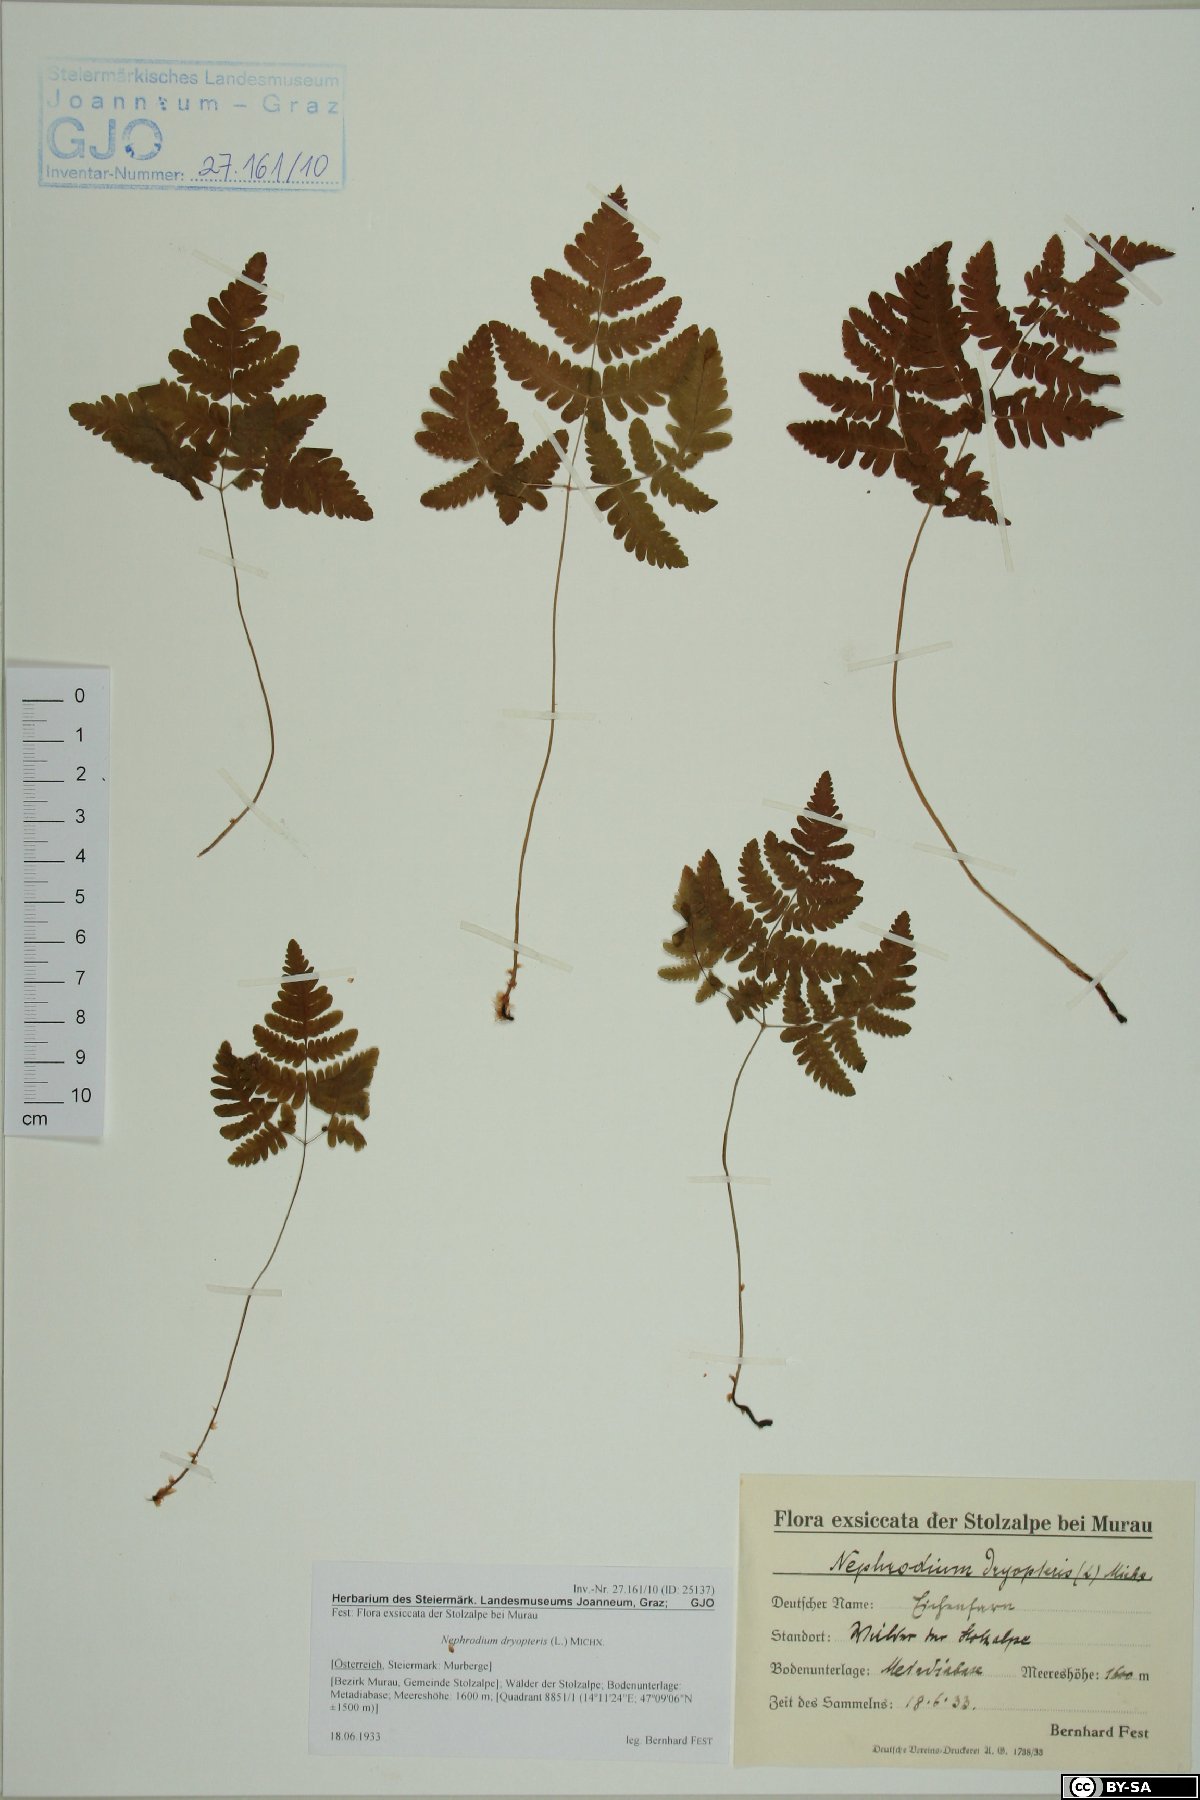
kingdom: Plantae
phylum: Tracheophyta
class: Polypodiopsida
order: Polypodiales
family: Cystopteridaceae
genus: Gymnocarpium
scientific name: Gymnocarpium dryopteris
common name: Oak fern
